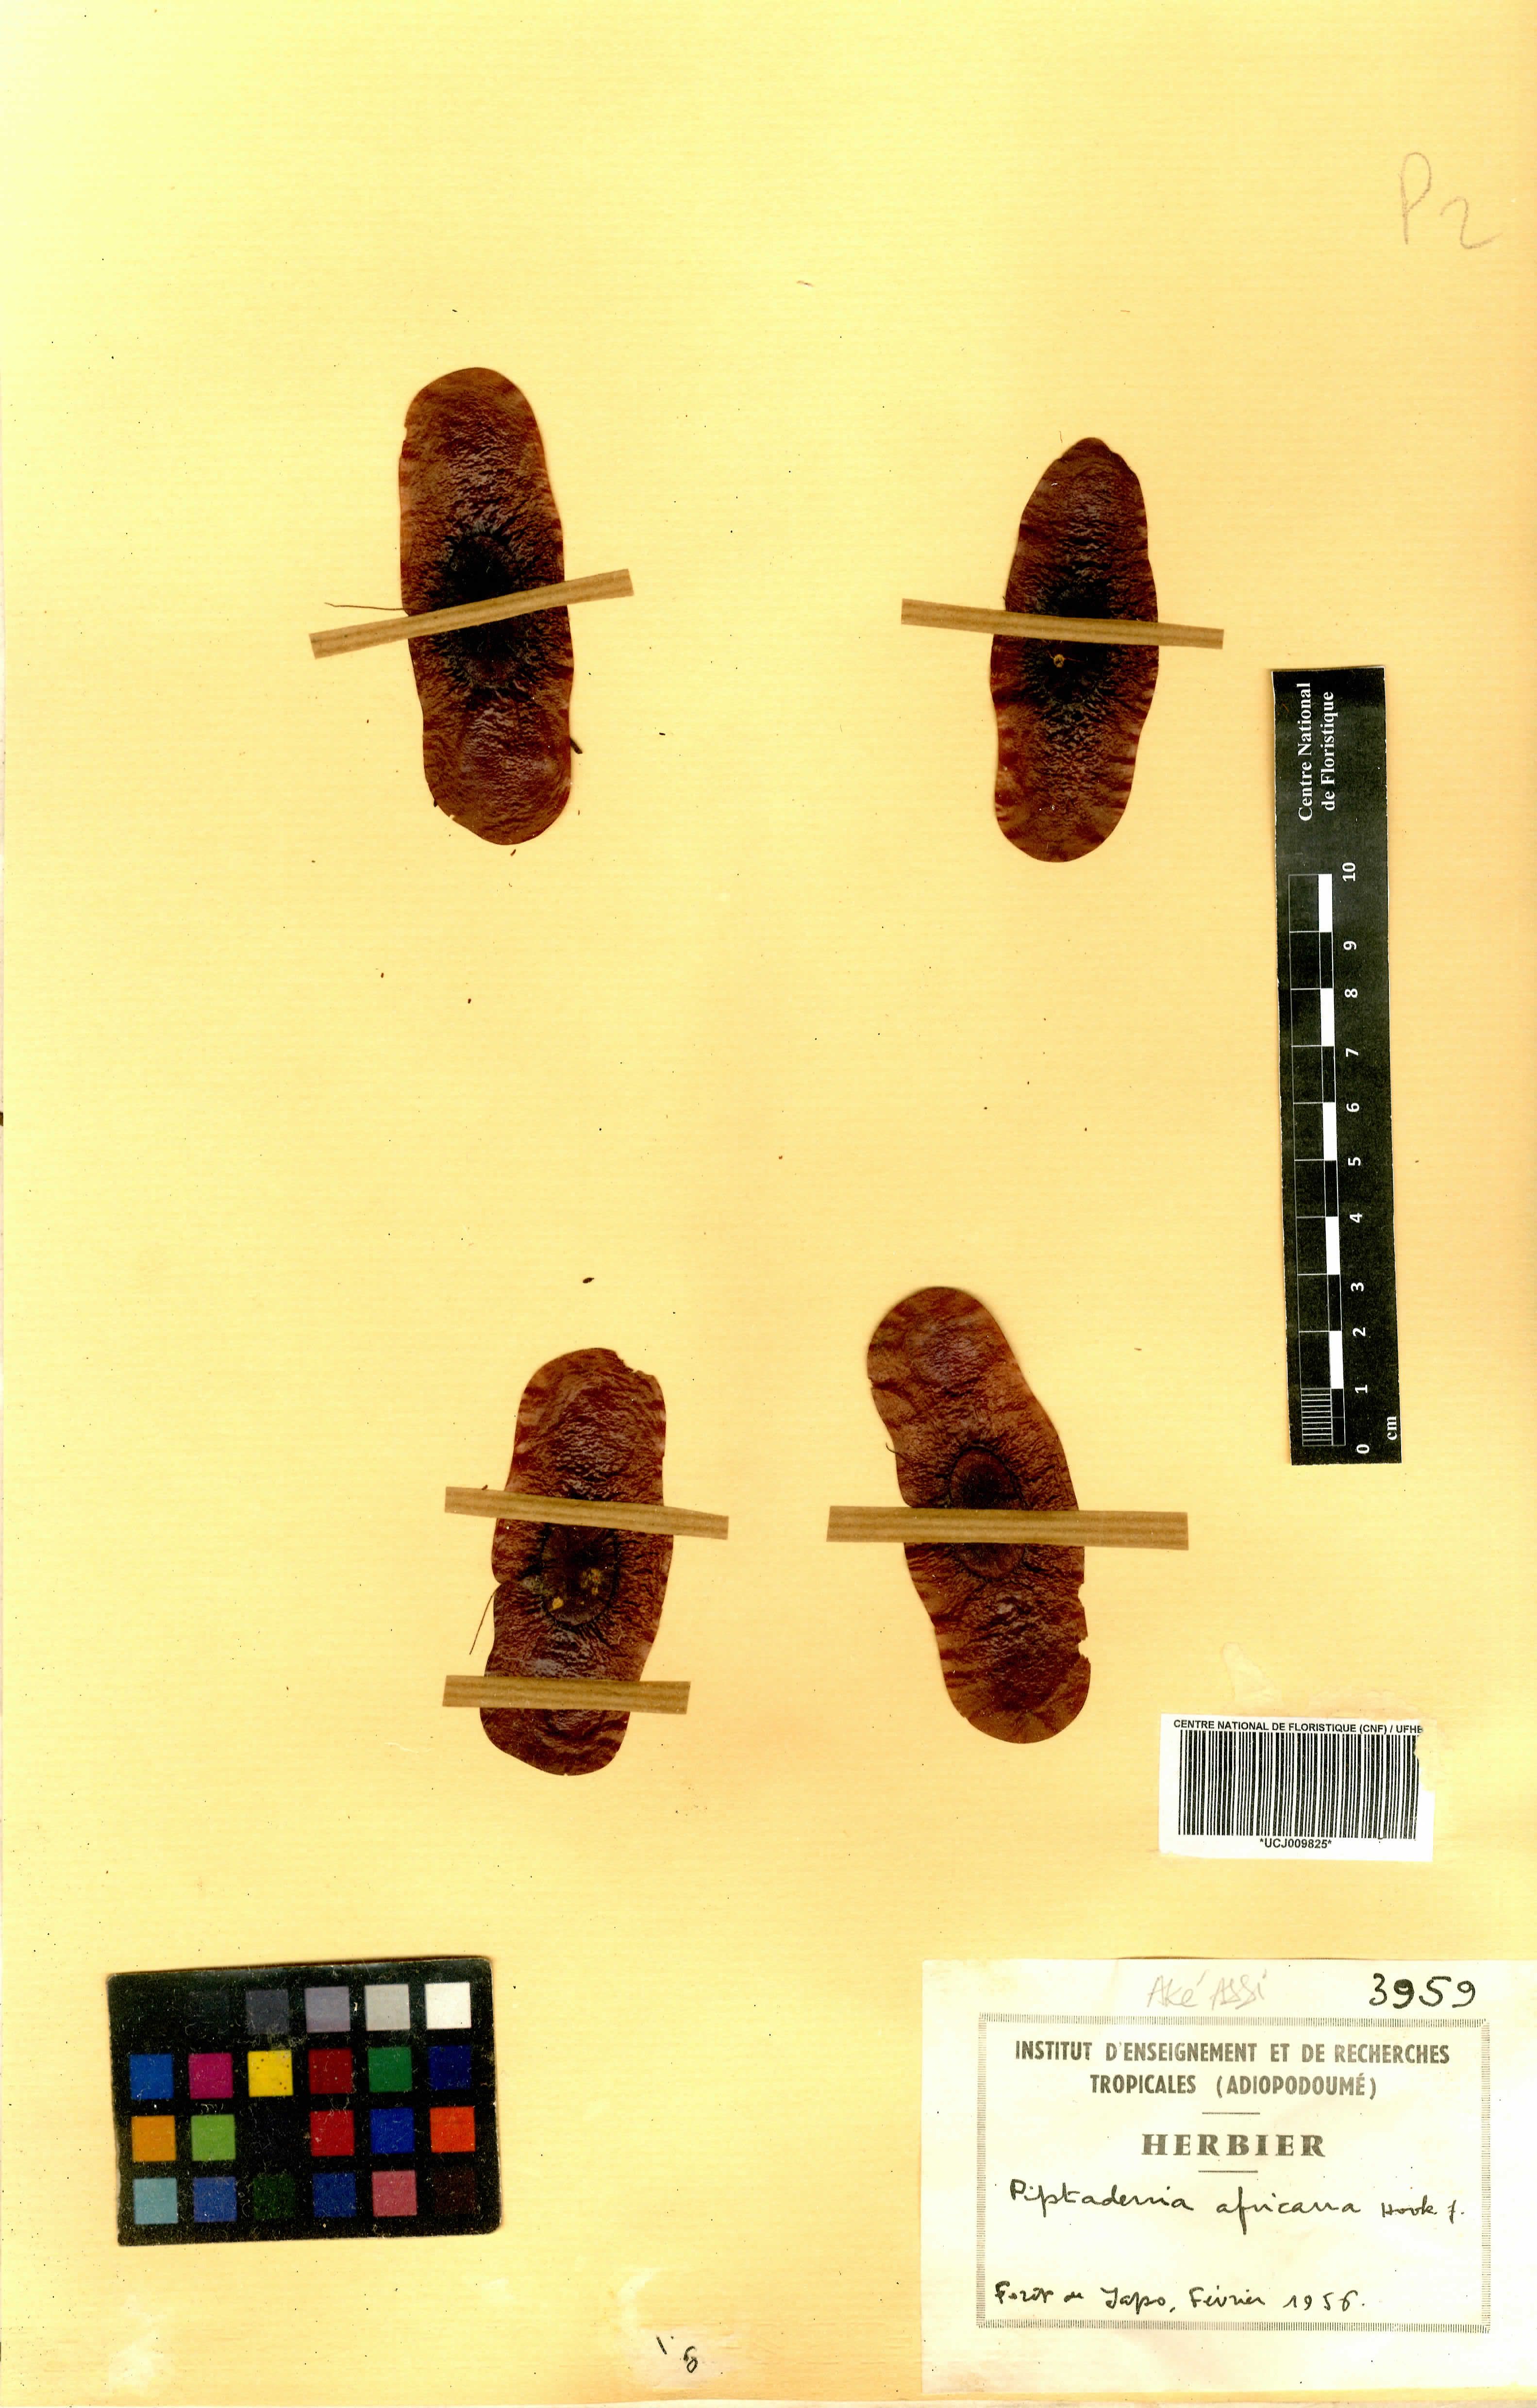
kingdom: Plantae
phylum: Tracheophyta
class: Magnoliopsida
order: Fabales
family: Fabaceae
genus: Piptadeniastrum
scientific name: Piptadeniastrum africanum
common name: African greenheart
